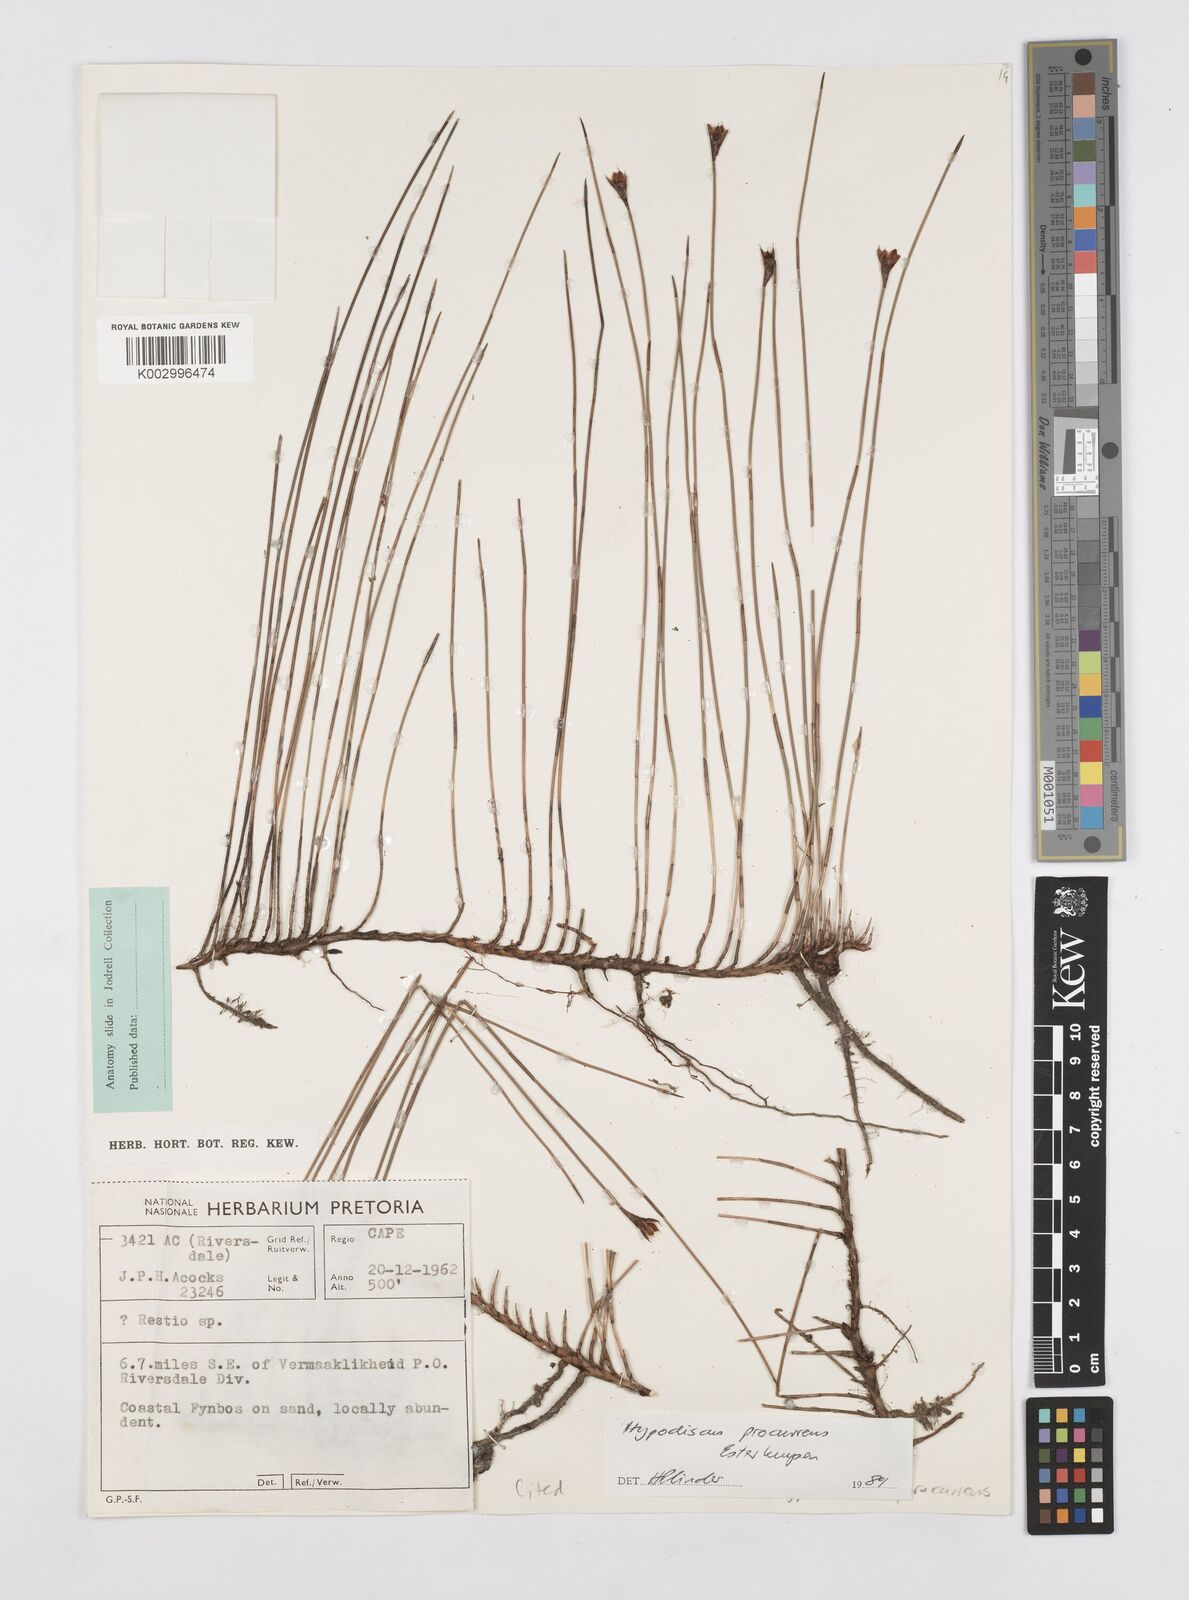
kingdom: Plantae
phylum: Tracheophyta
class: Liliopsida
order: Poales
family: Restionaceae
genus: Hypodiscus
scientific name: Hypodiscus procurrens
